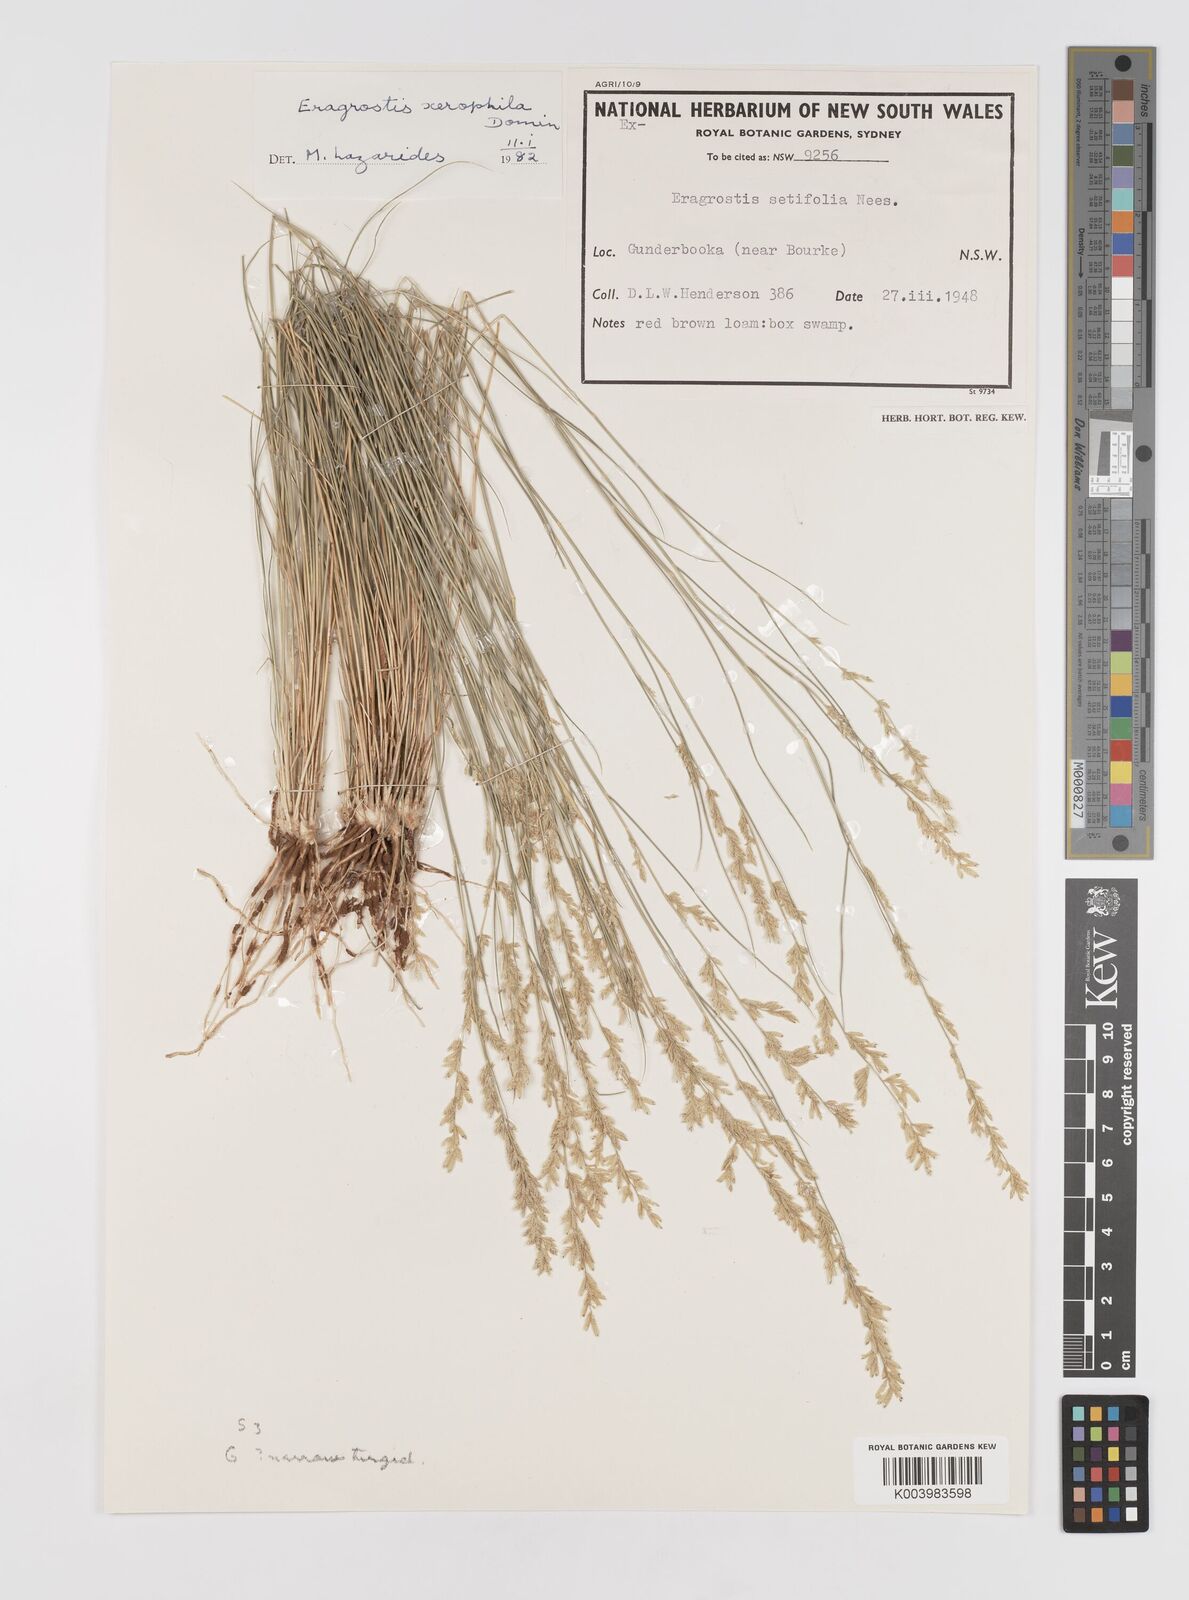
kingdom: Plantae
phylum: Tracheophyta
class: Liliopsida
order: Poales
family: Poaceae
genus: Eragrostis
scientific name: Eragrostis xerophila
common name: Wire wandarrie grass
